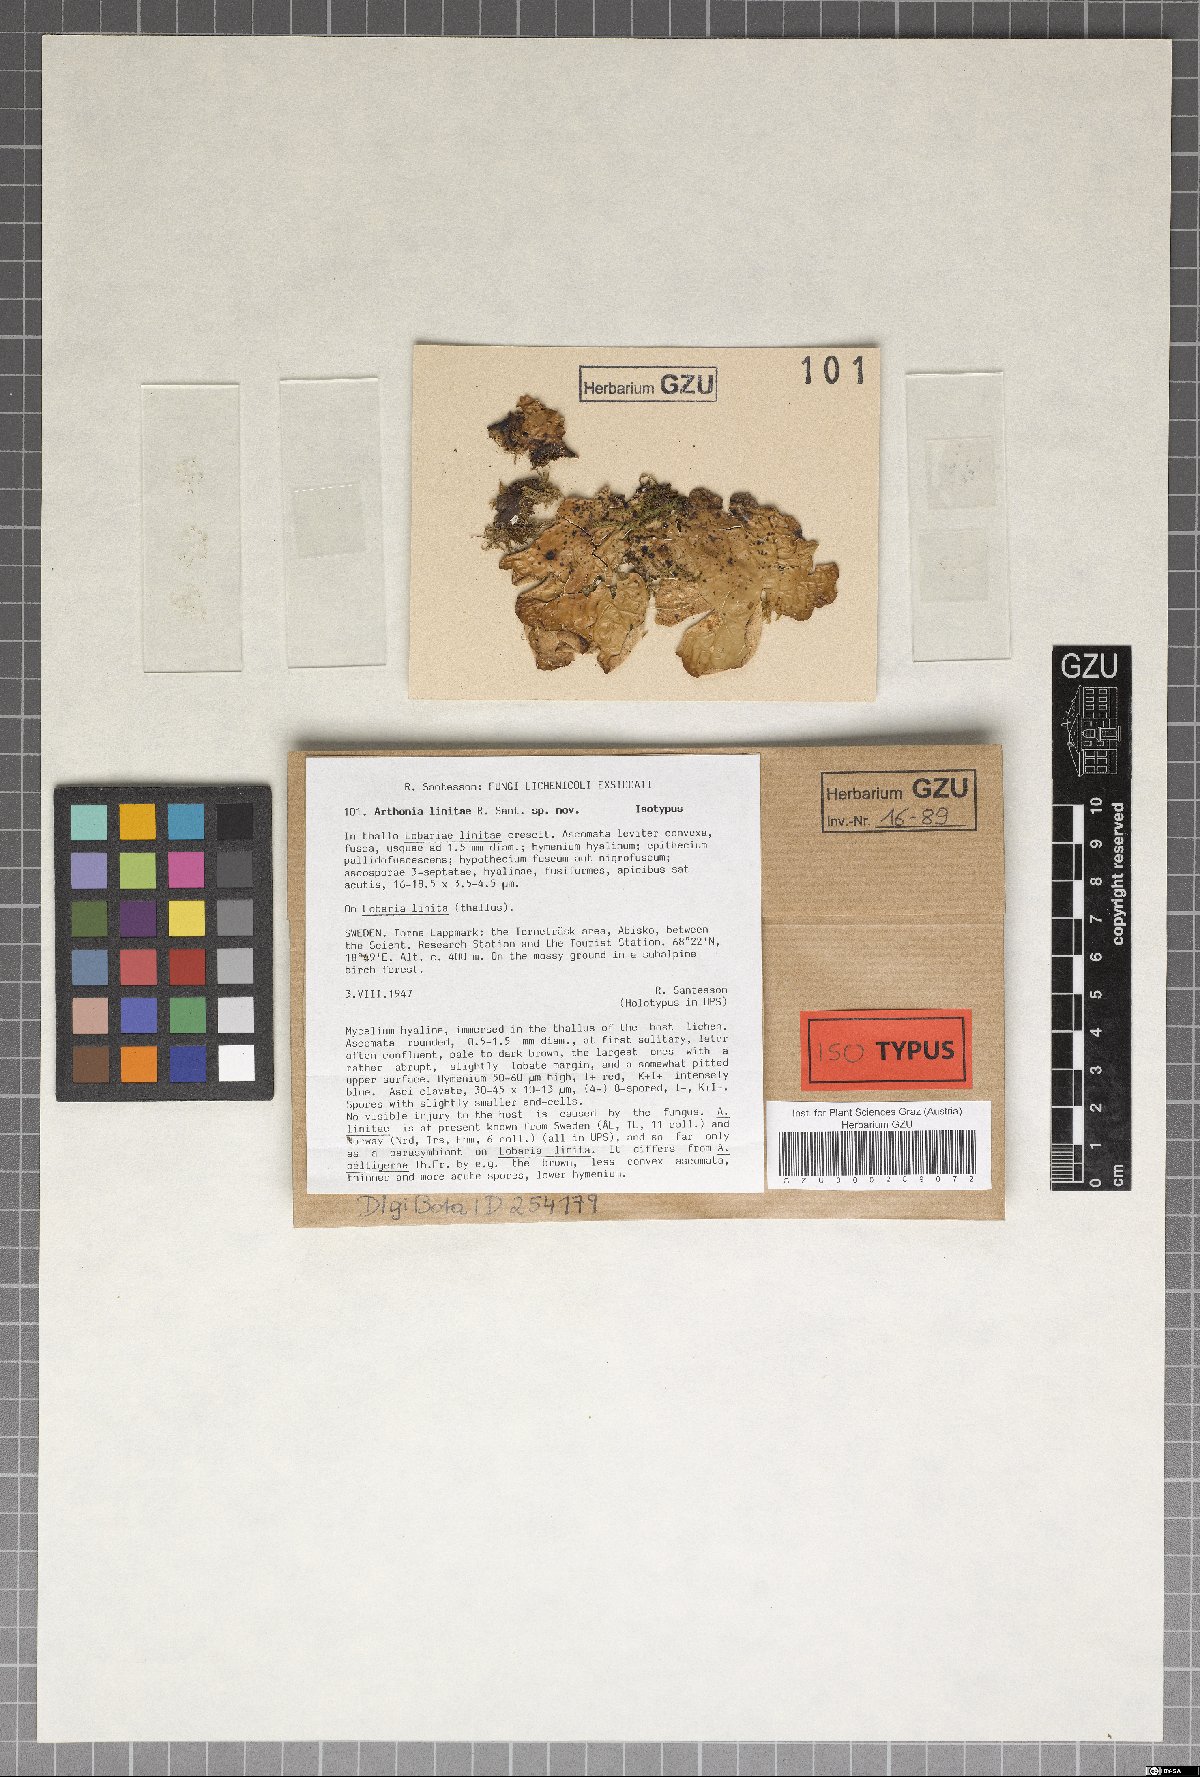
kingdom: Plantae
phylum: Marchantiophyta
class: Jungermanniopsida
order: Jungermanniales
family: Cephaloziaceae
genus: Odontoschisma
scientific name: Odontoschisma
